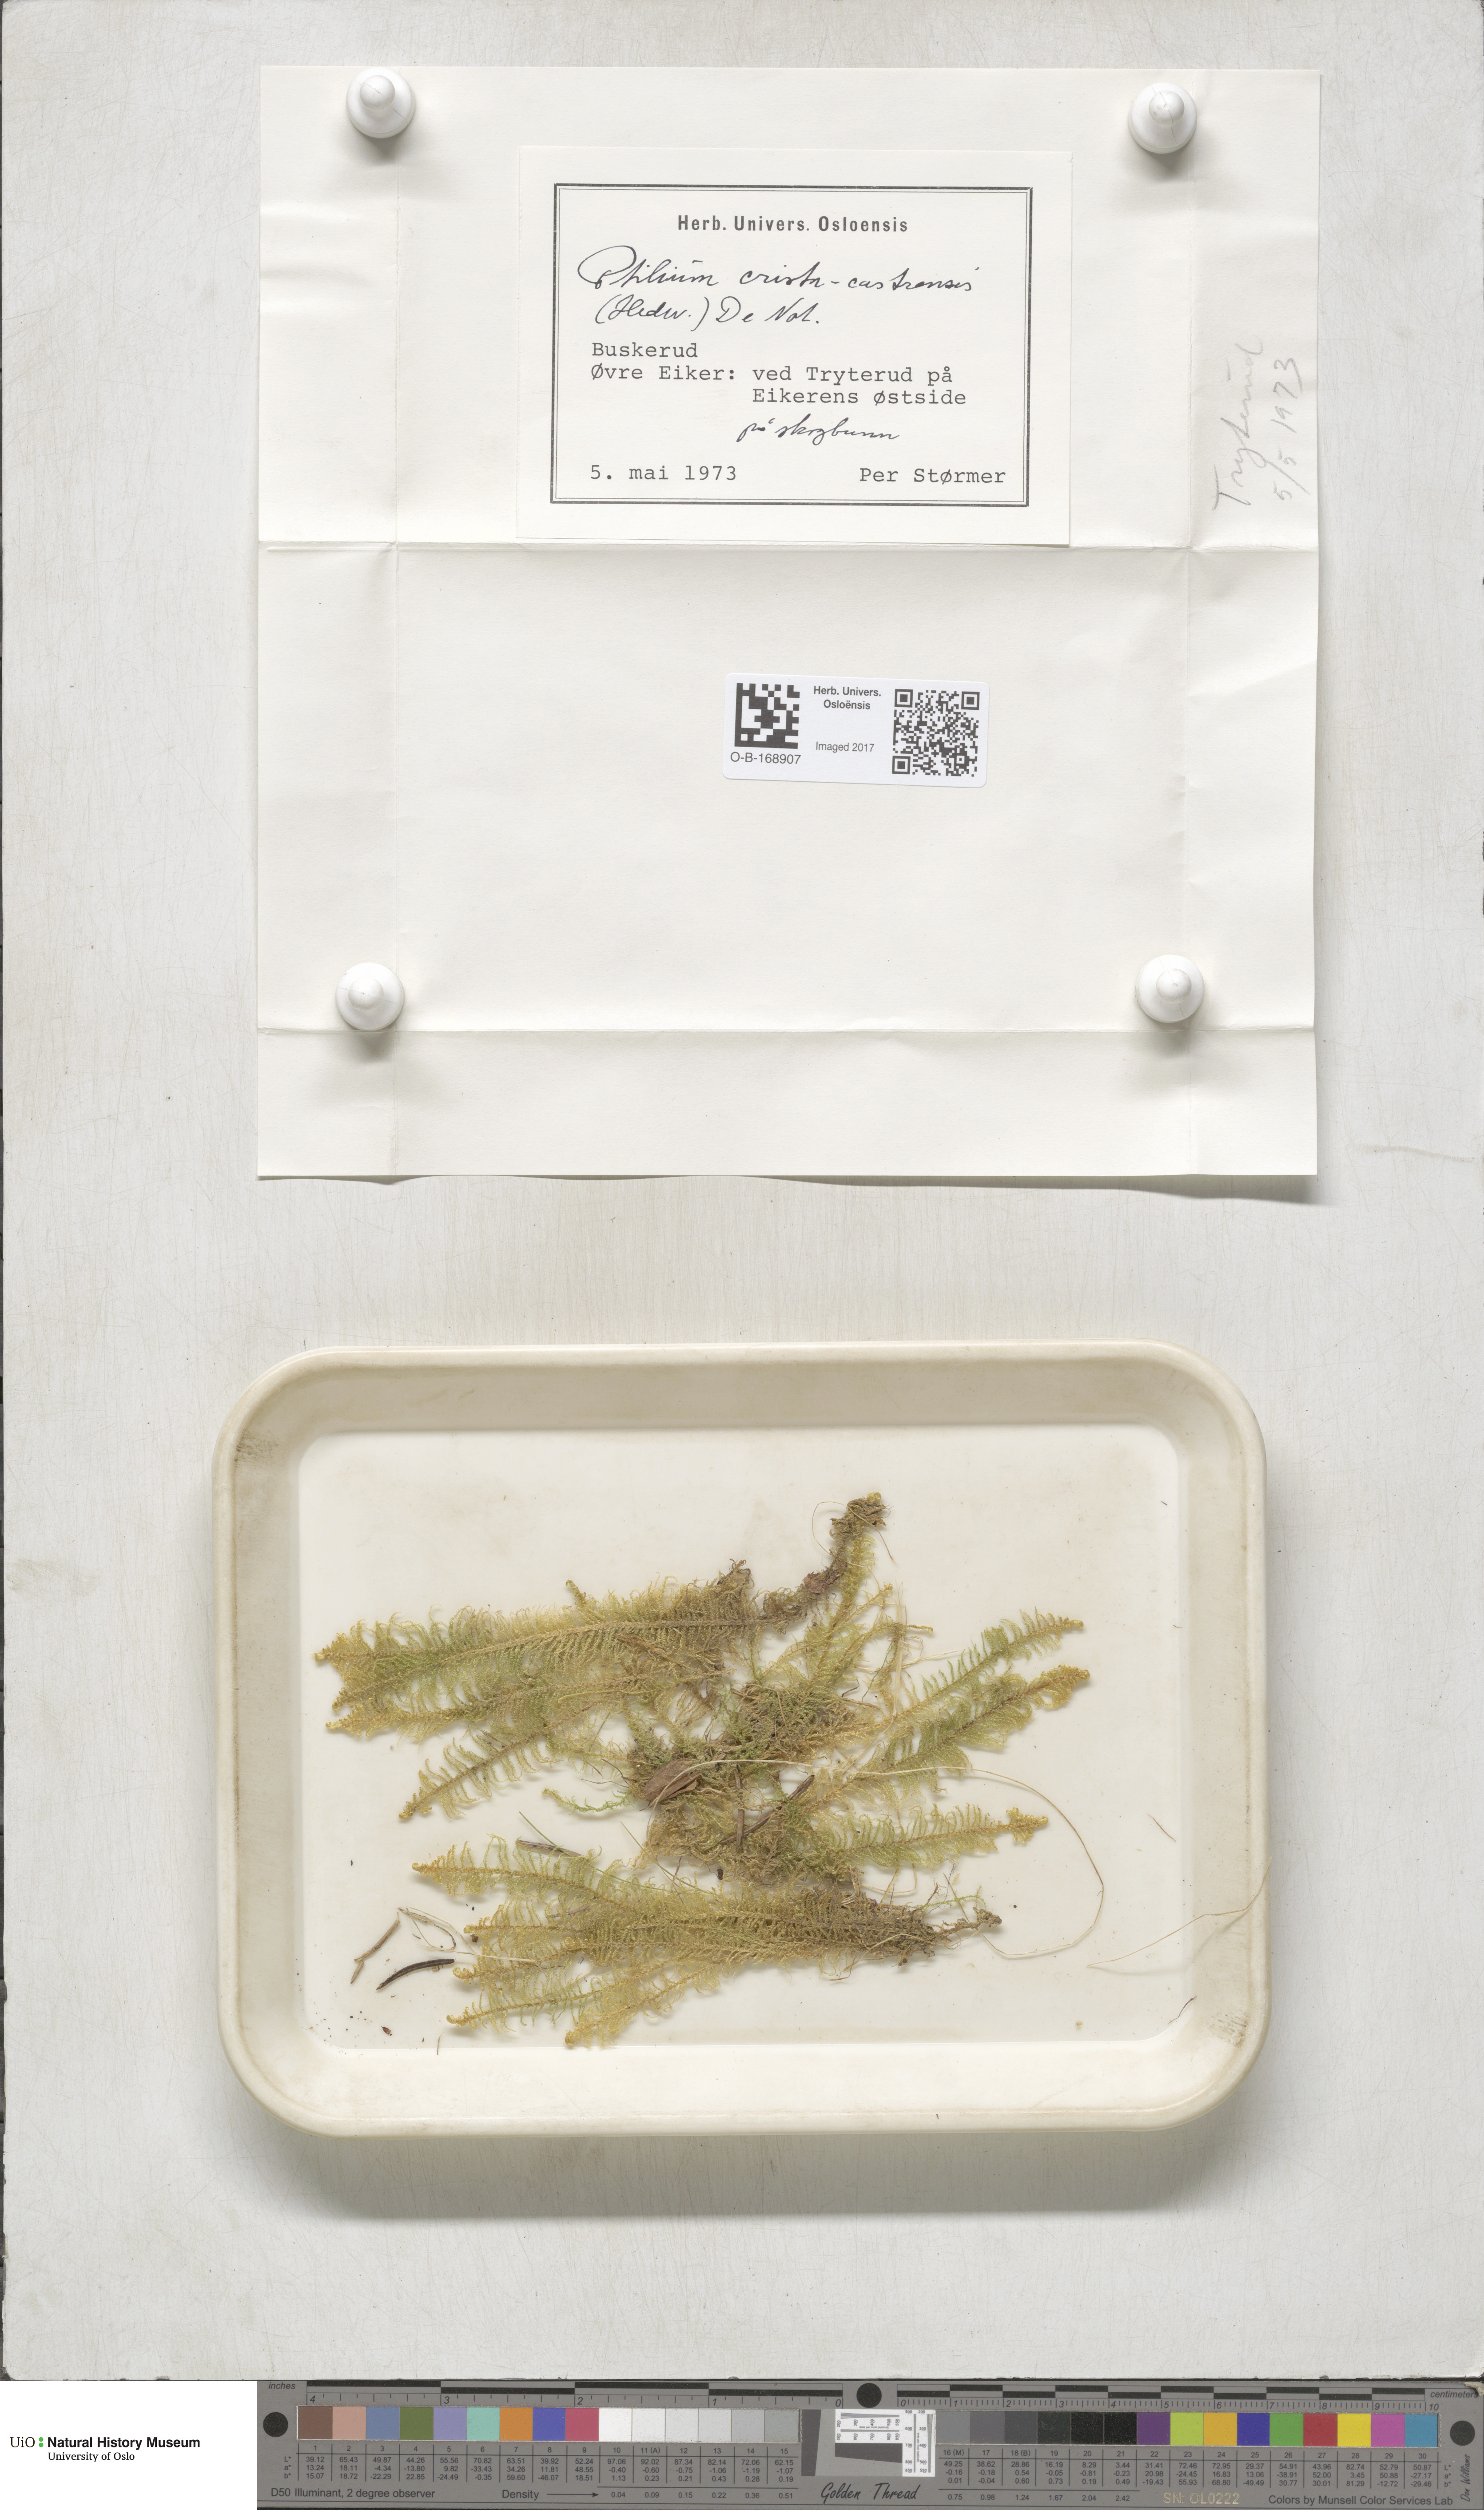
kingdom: Plantae
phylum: Bryophyta
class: Bryopsida
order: Hypnales
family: Pylaisiaceae
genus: Ptilium
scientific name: Ptilium crista-castrensis
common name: Knight's plume moss
